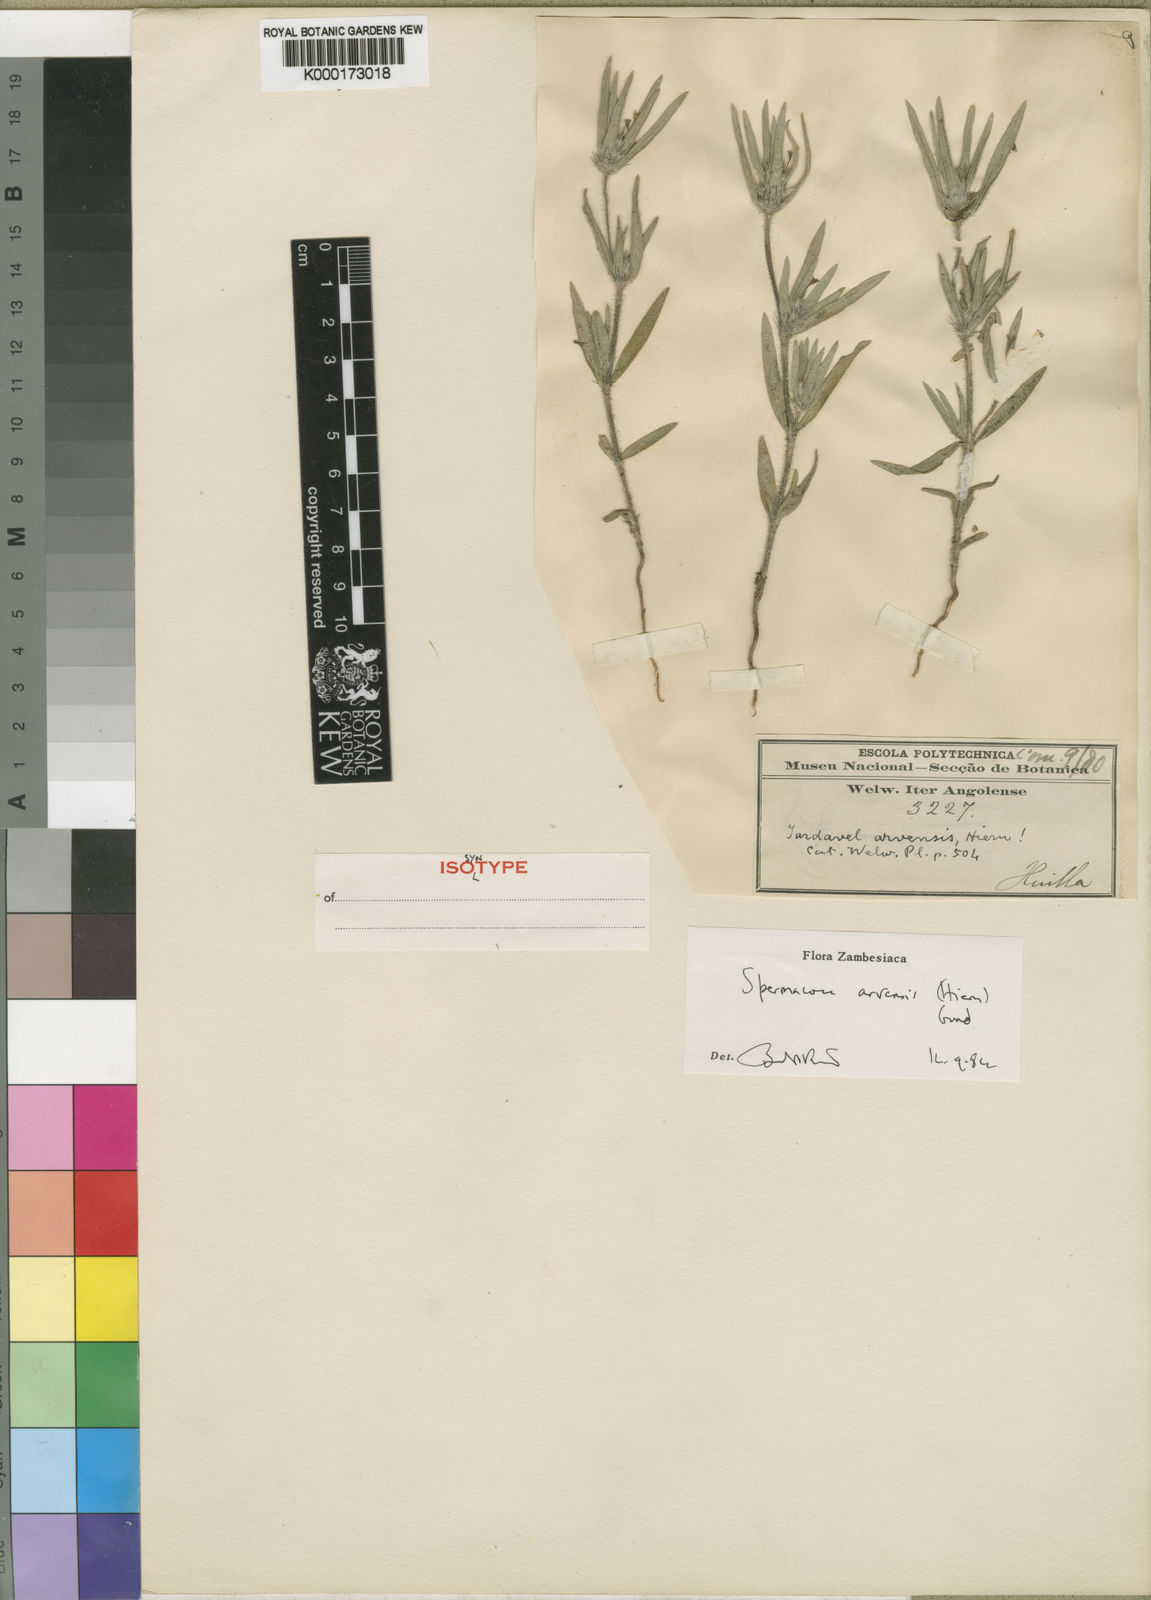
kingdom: Plantae
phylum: Tracheophyta
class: Magnoliopsida
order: Gentianales
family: Rubiaceae
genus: Spermacoce
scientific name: Spermacoce arvensis
